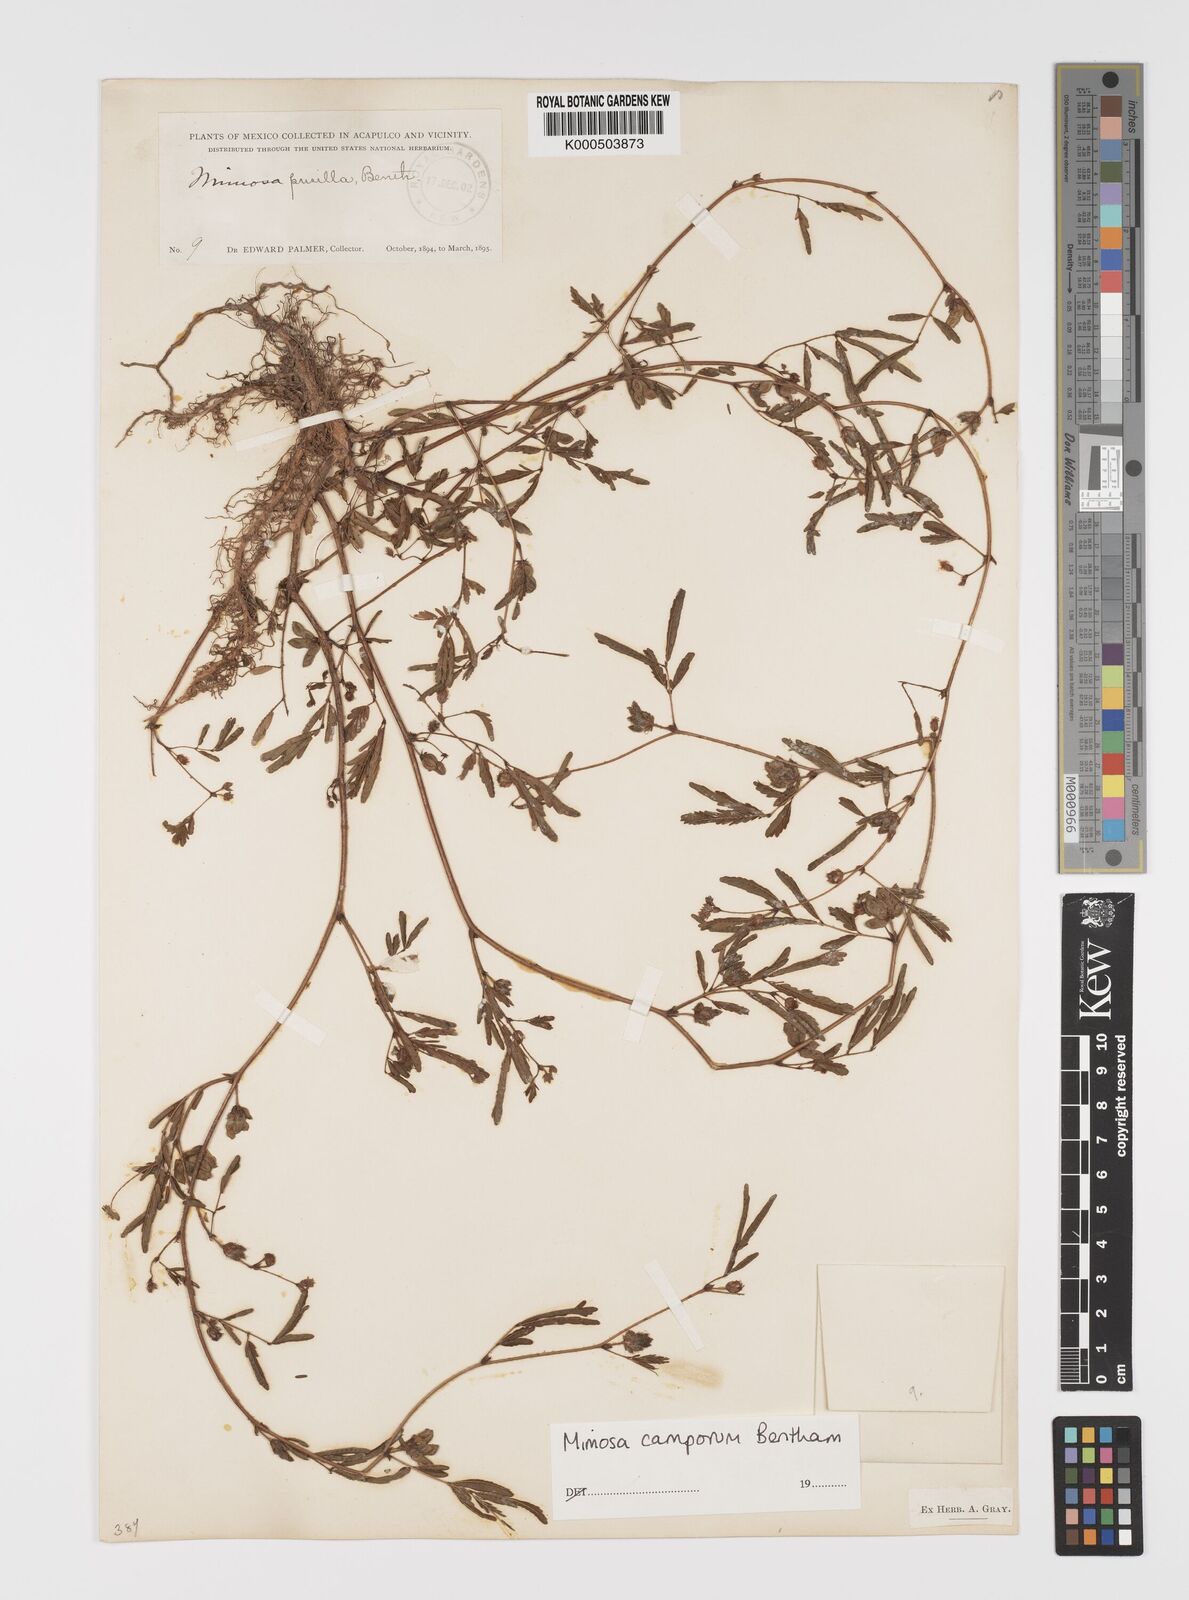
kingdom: Plantae
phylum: Tracheophyta
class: Magnoliopsida
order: Fabales
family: Fabaceae
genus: Mimosa
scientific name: Mimosa camporum
